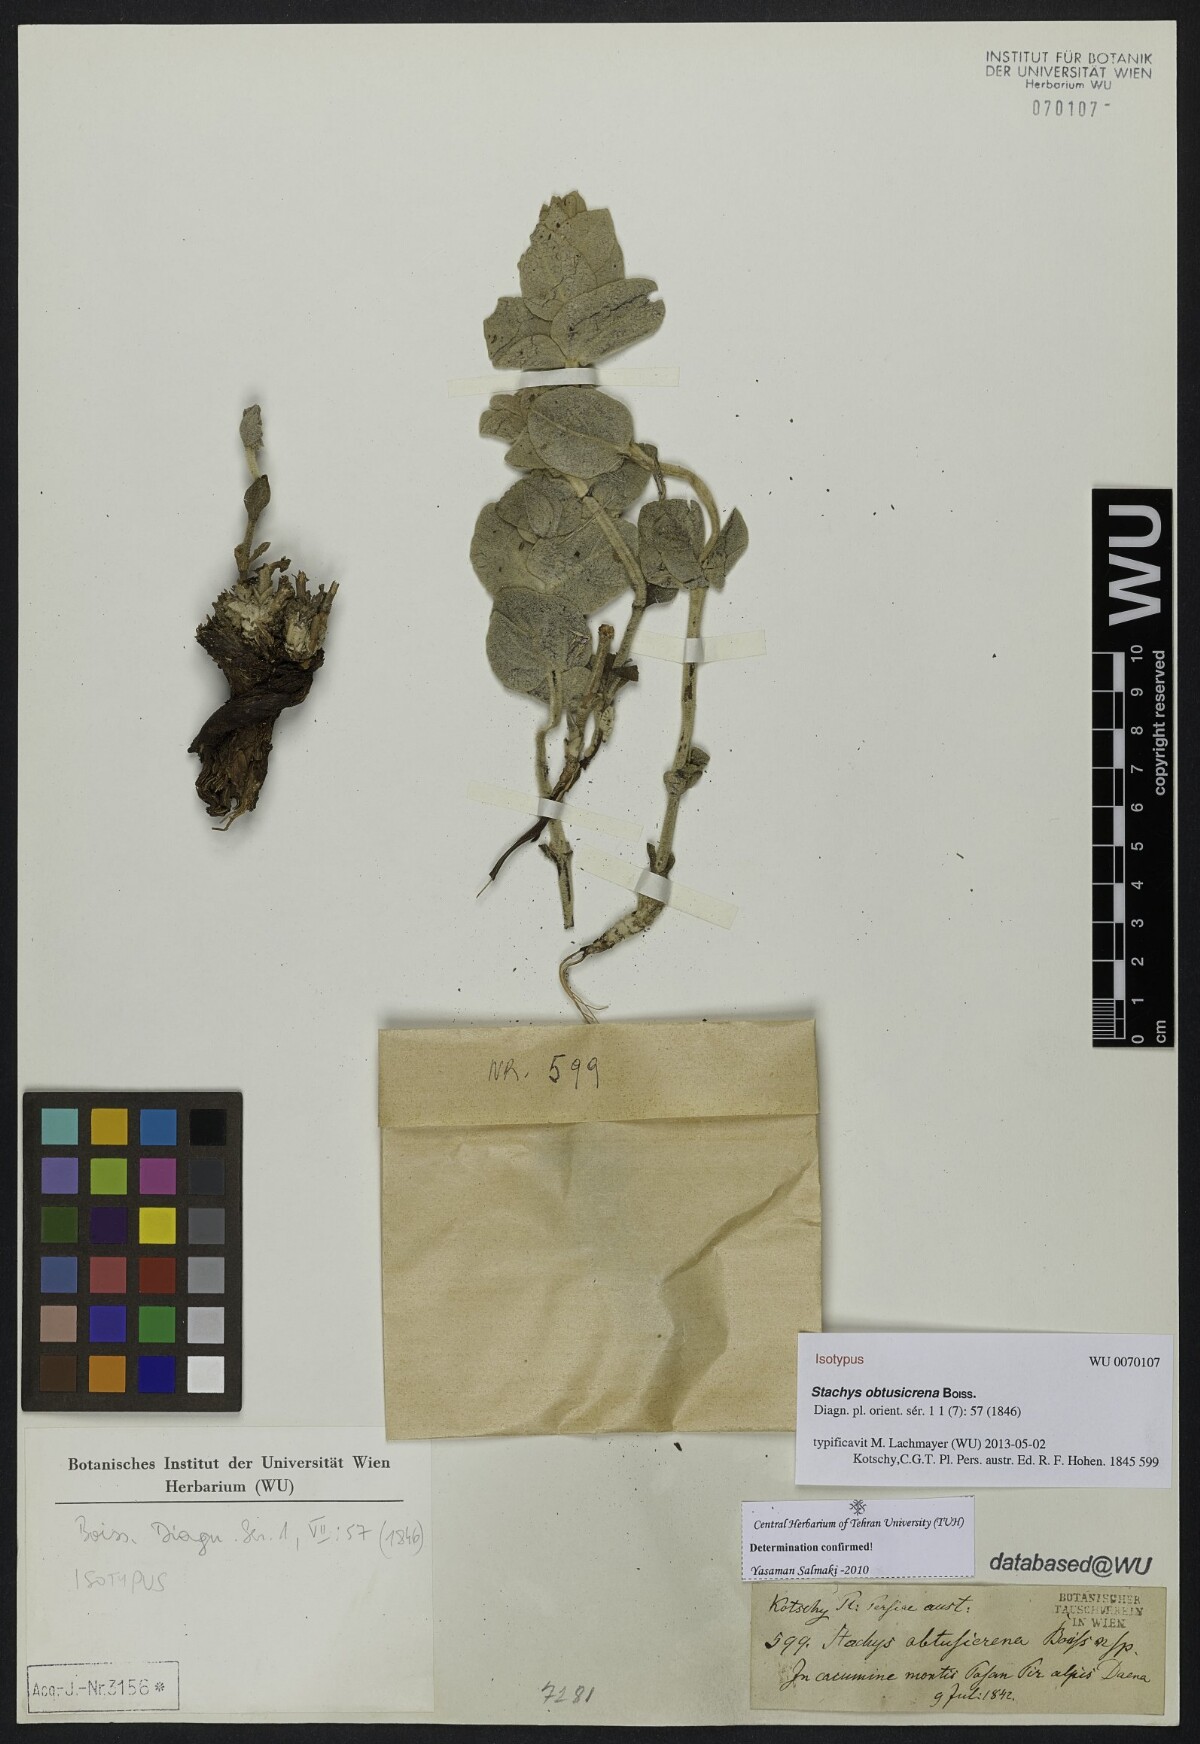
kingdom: Plantae
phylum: Tracheophyta
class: Magnoliopsida
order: Lamiales
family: Lamiaceae
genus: Stachys
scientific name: Stachys obtusicrena
